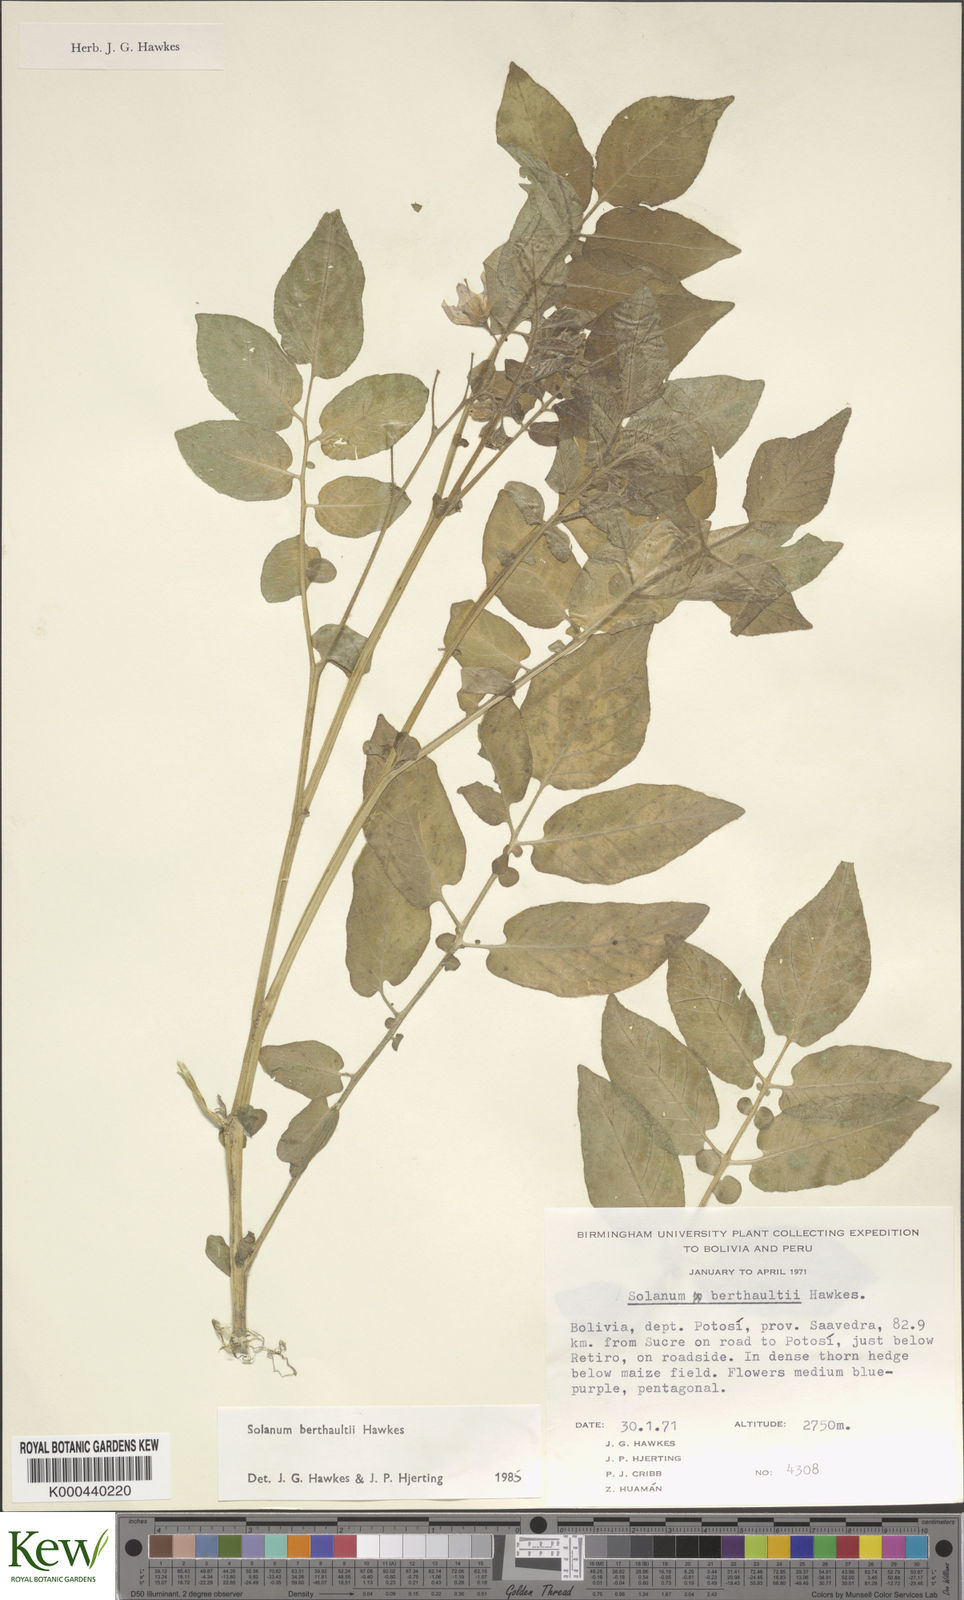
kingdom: Plantae
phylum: Tracheophyta
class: Magnoliopsida
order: Solanales
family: Solanaceae
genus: Solanum
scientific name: Solanum berthaultii
